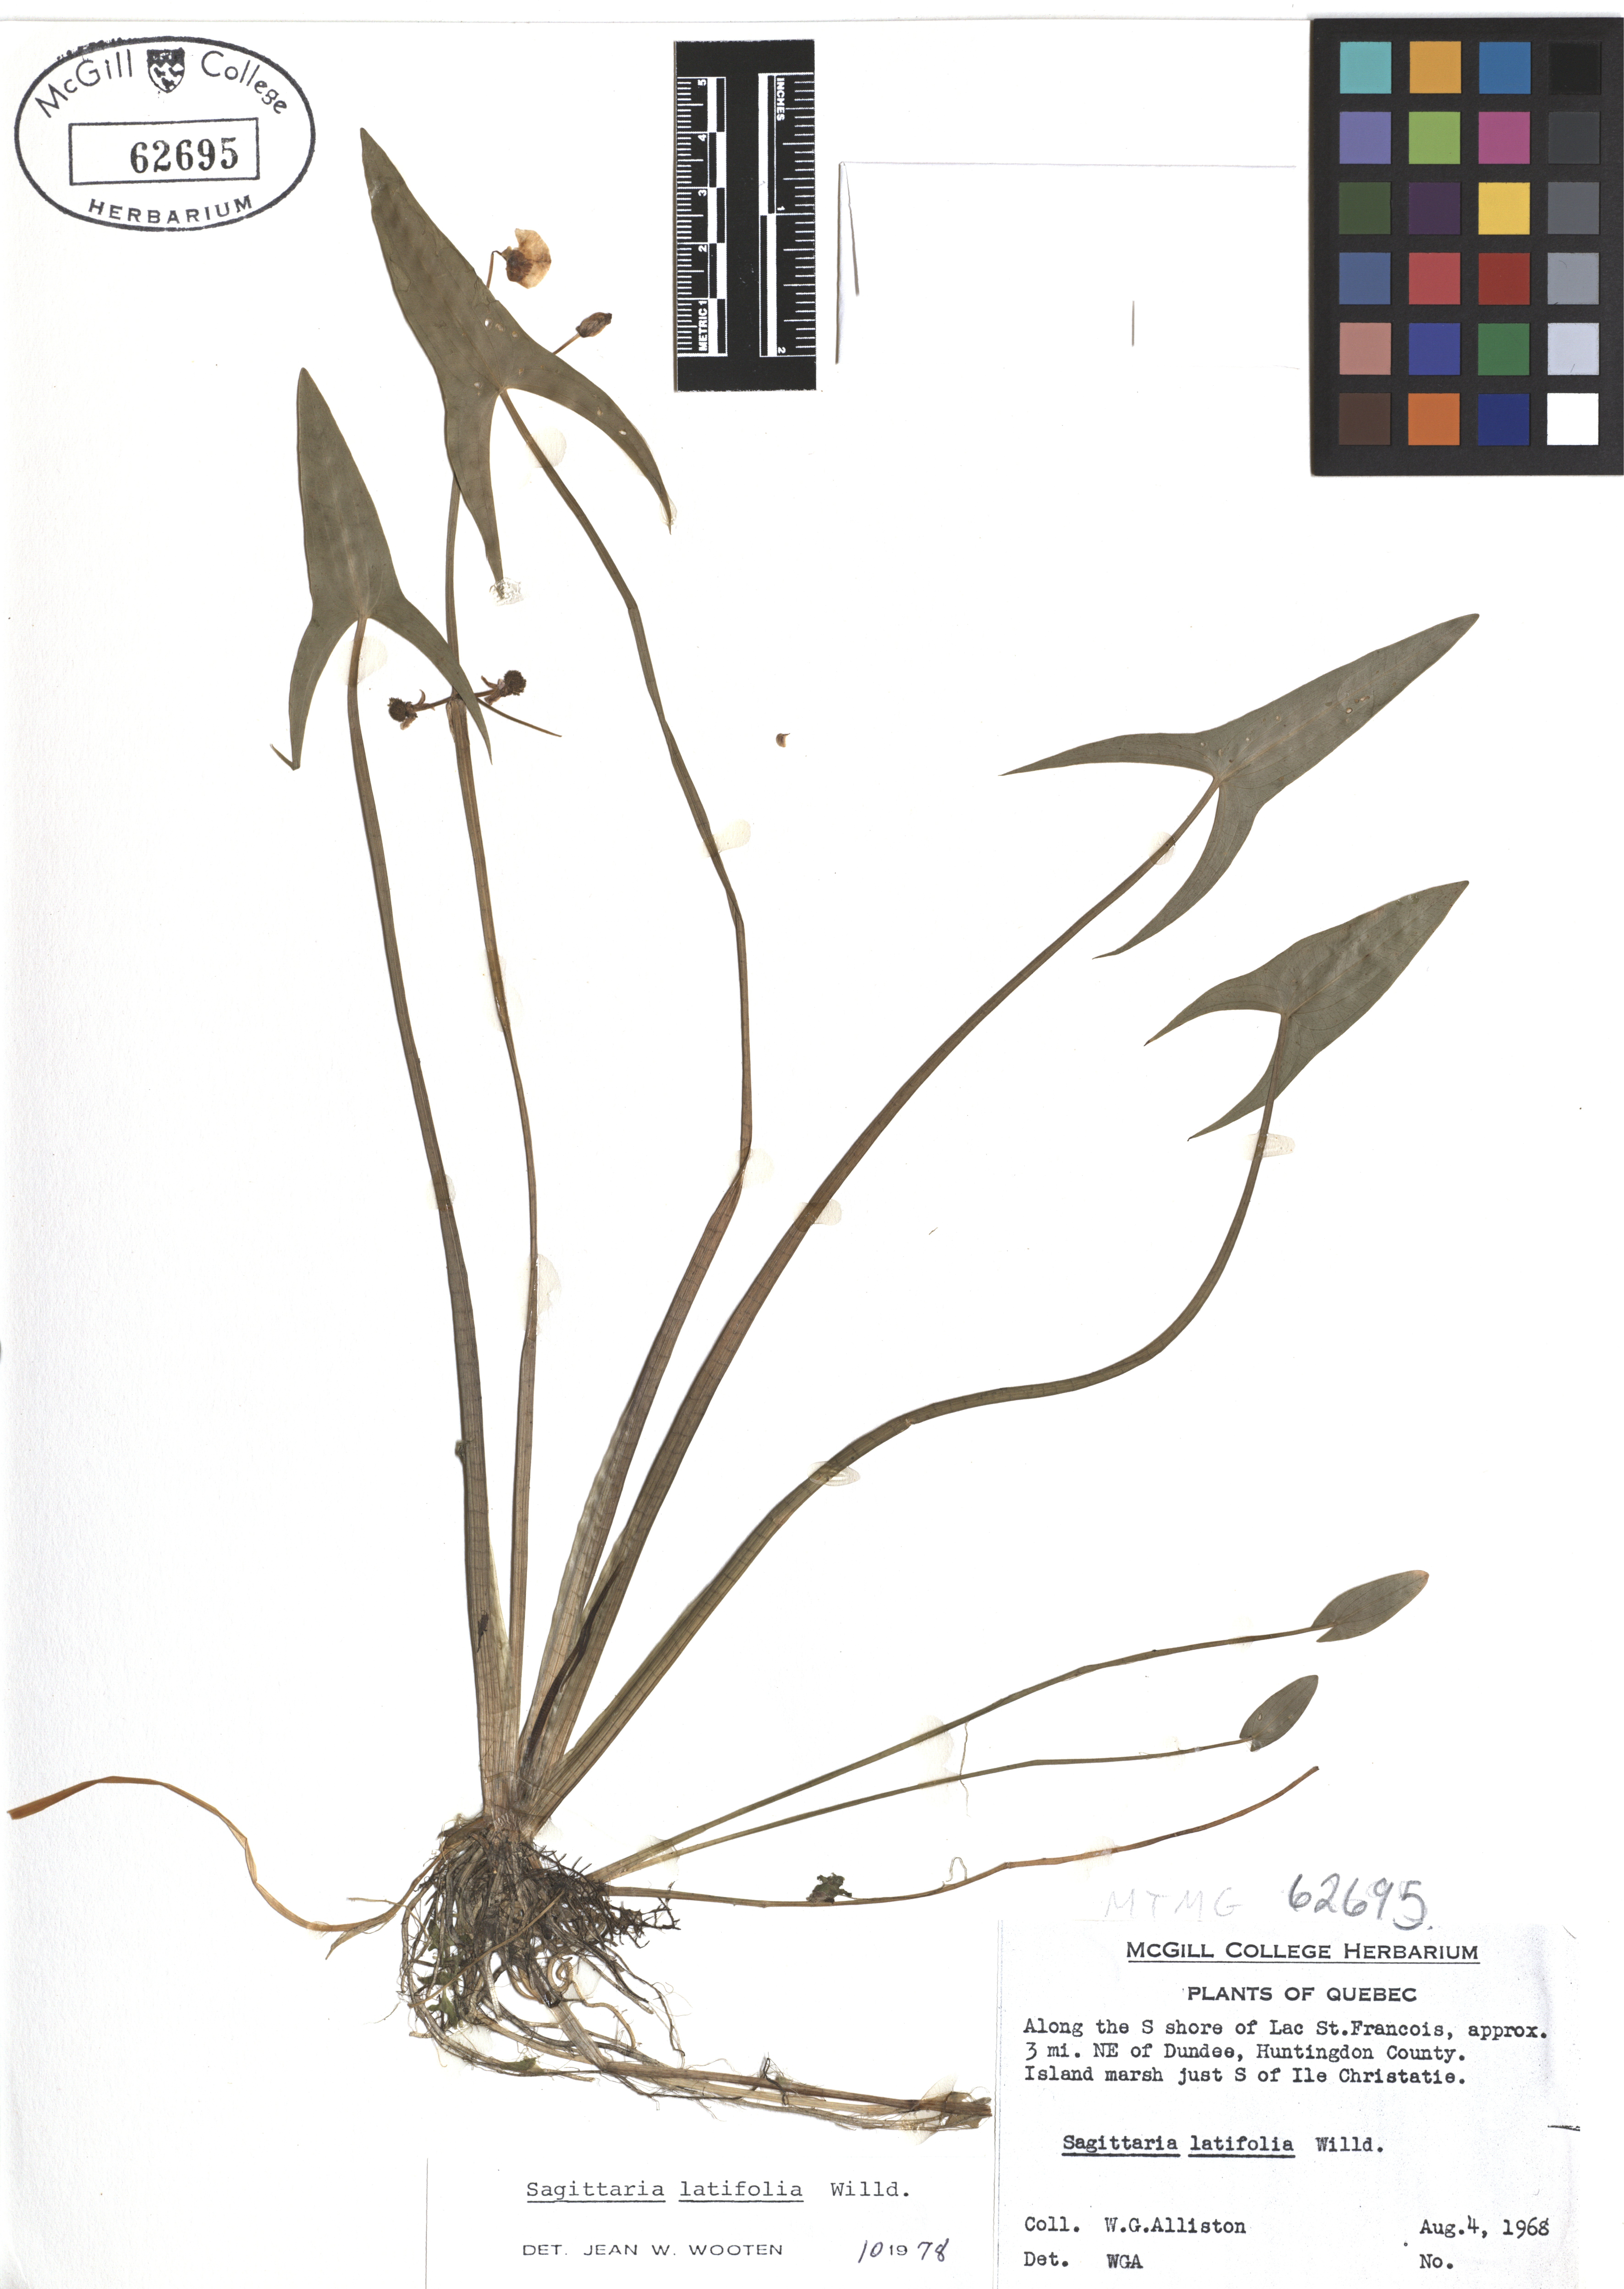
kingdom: Plantae
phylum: Tracheophyta
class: Liliopsida
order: Alismatales
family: Alismataceae
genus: Sagittaria
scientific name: Sagittaria latifolia
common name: Duck-potato
